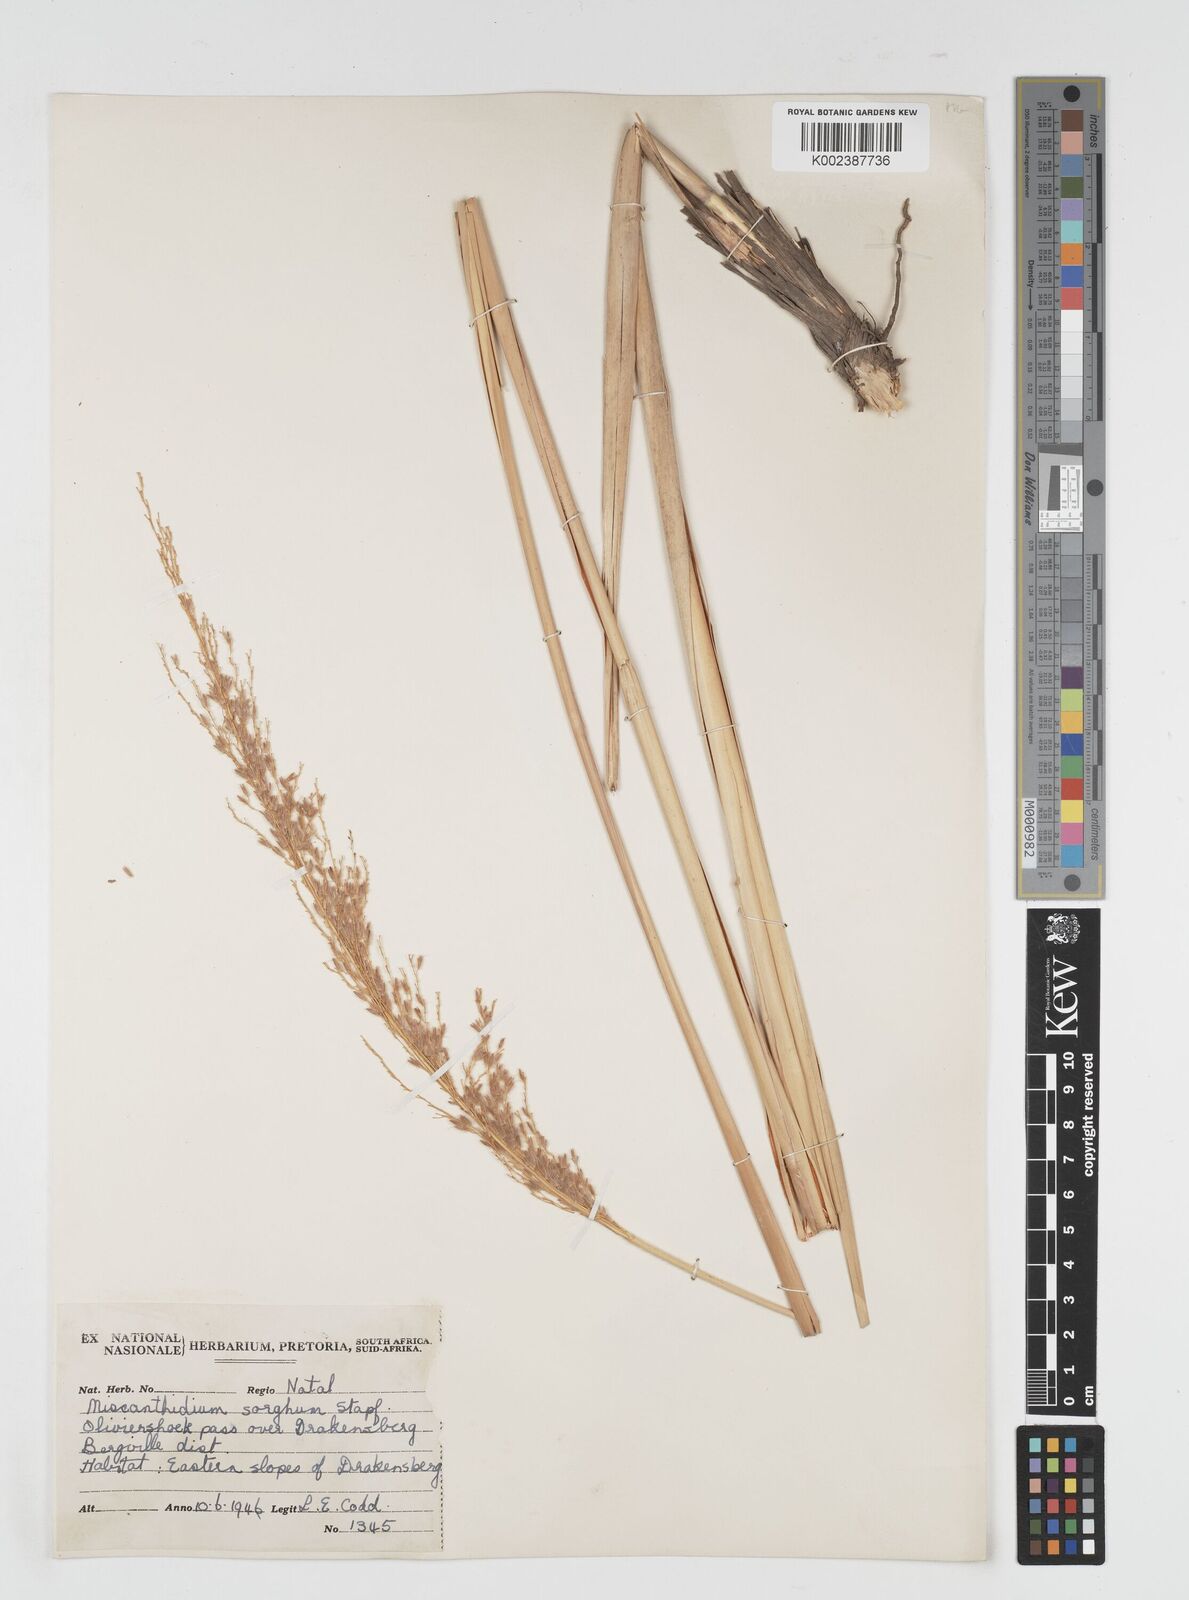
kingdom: Plantae
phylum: Tracheophyta
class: Liliopsida
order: Poales
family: Poaceae
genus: Miscanthus
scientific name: Miscanthus ecklonii
